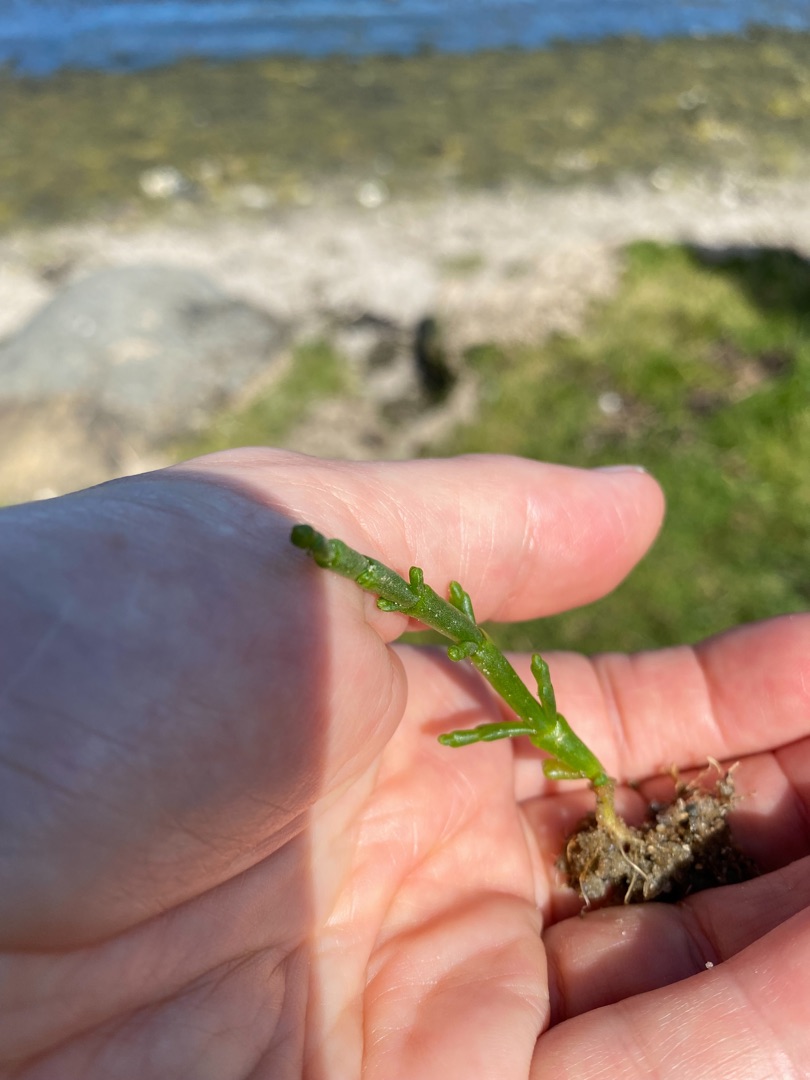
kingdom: Plantae
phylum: Tracheophyta
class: Magnoliopsida
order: Caryophyllales
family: Amaranthaceae
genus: Salicornia
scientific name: Salicornia europaea
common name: Almindelig salturt
